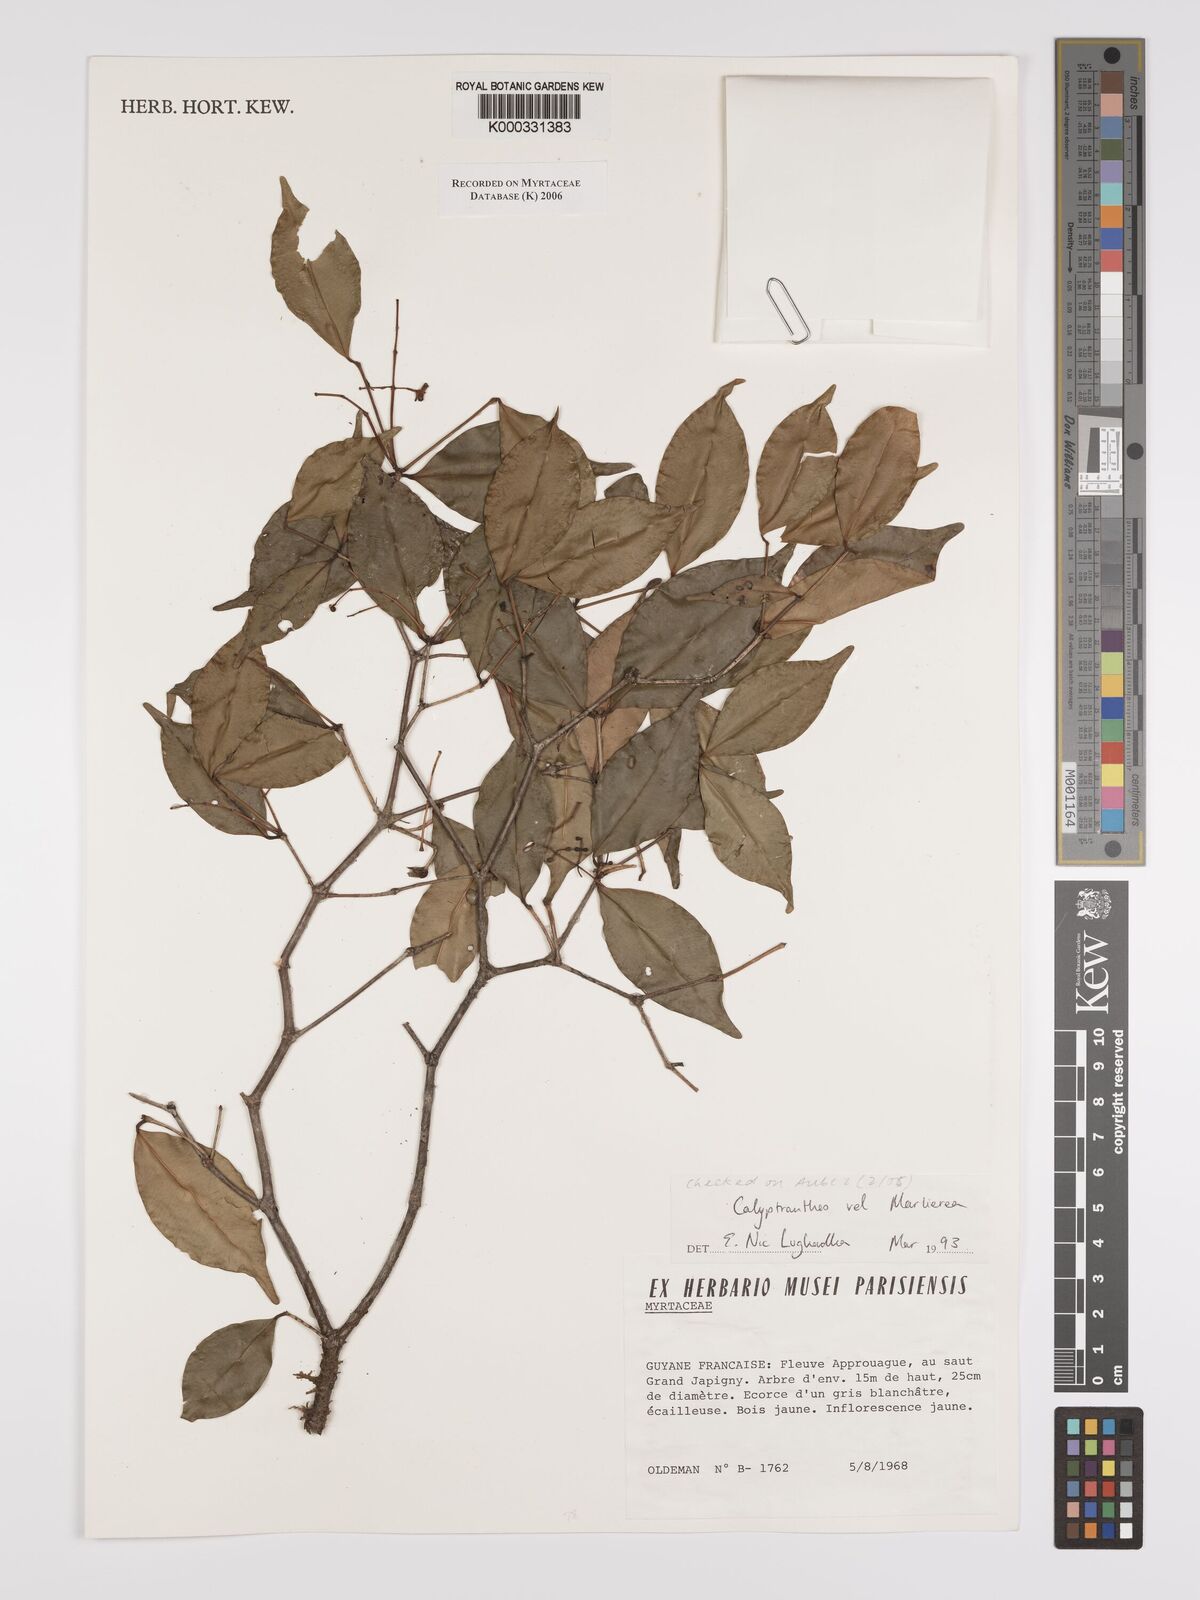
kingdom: Plantae
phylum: Tracheophyta
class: Magnoliopsida
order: Myrtales
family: Myrtaceae
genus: Calyptranthes
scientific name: Calyptranthes
